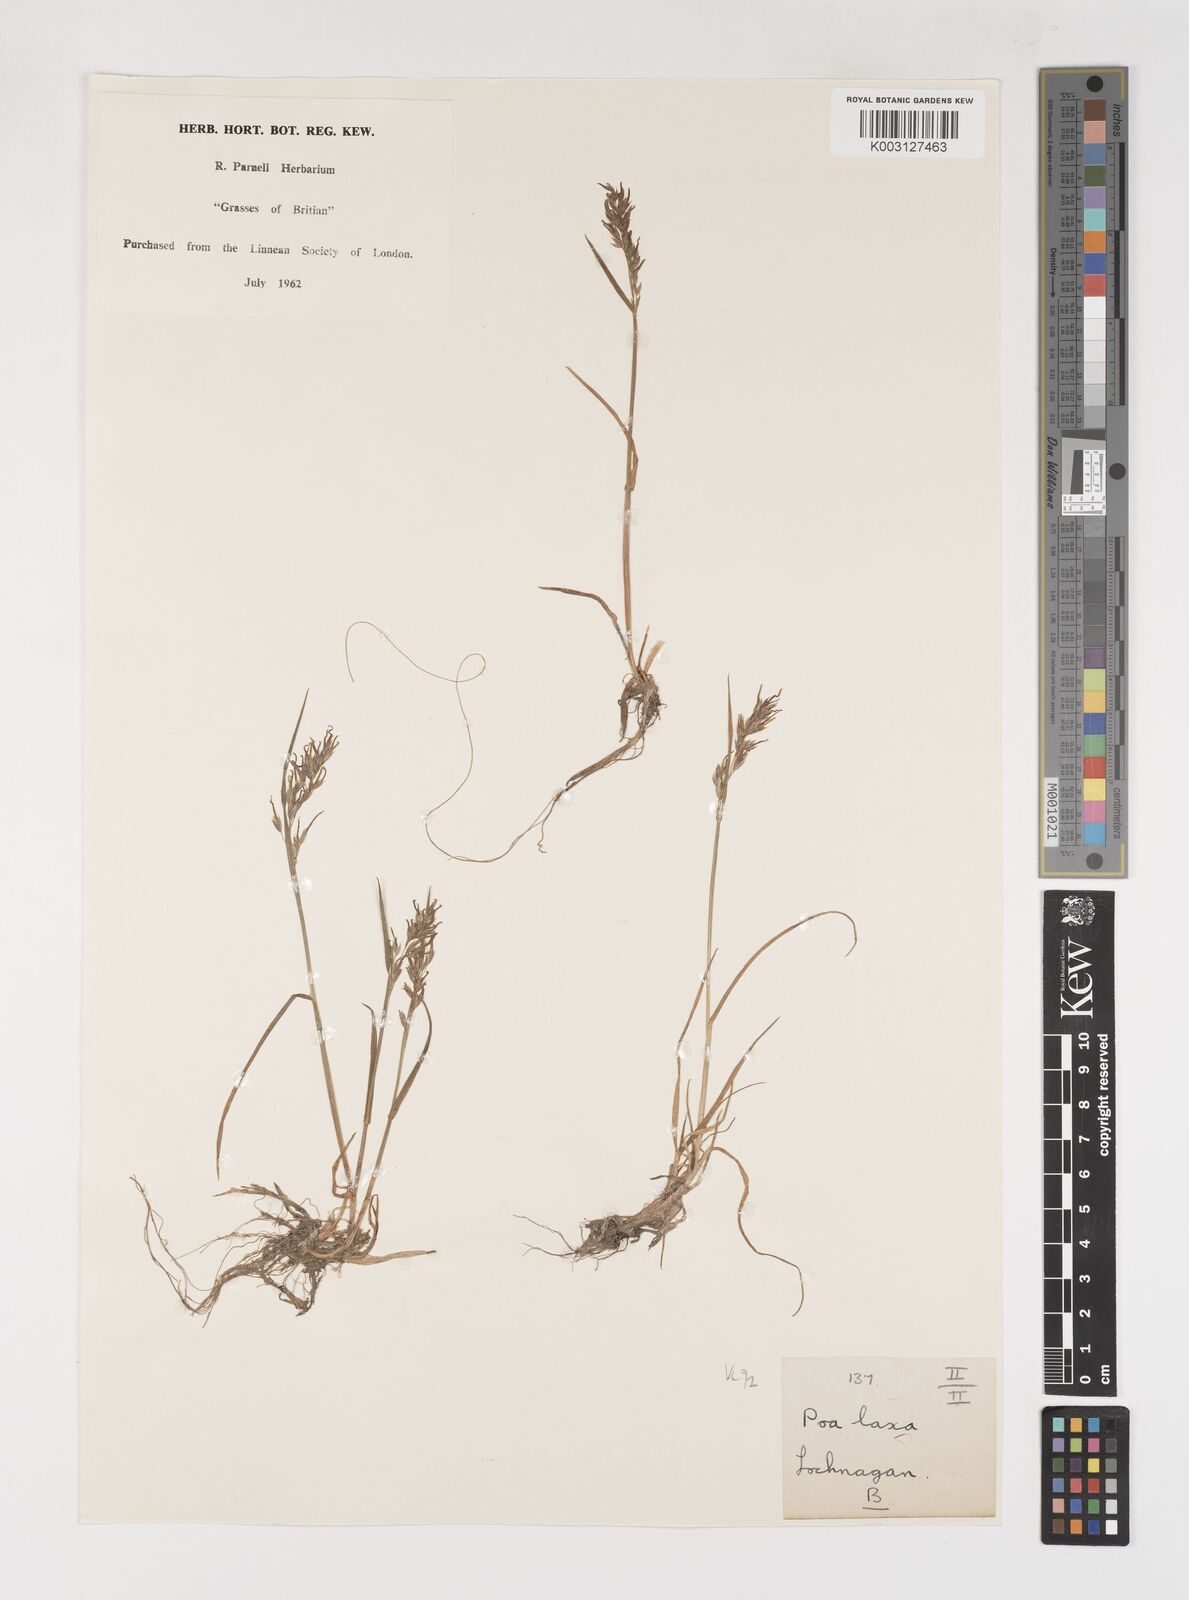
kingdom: Plantae
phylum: Tracheophyta
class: Liliopsida
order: Poales
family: Poaceae
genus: Poa
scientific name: Poa jemtlandica
